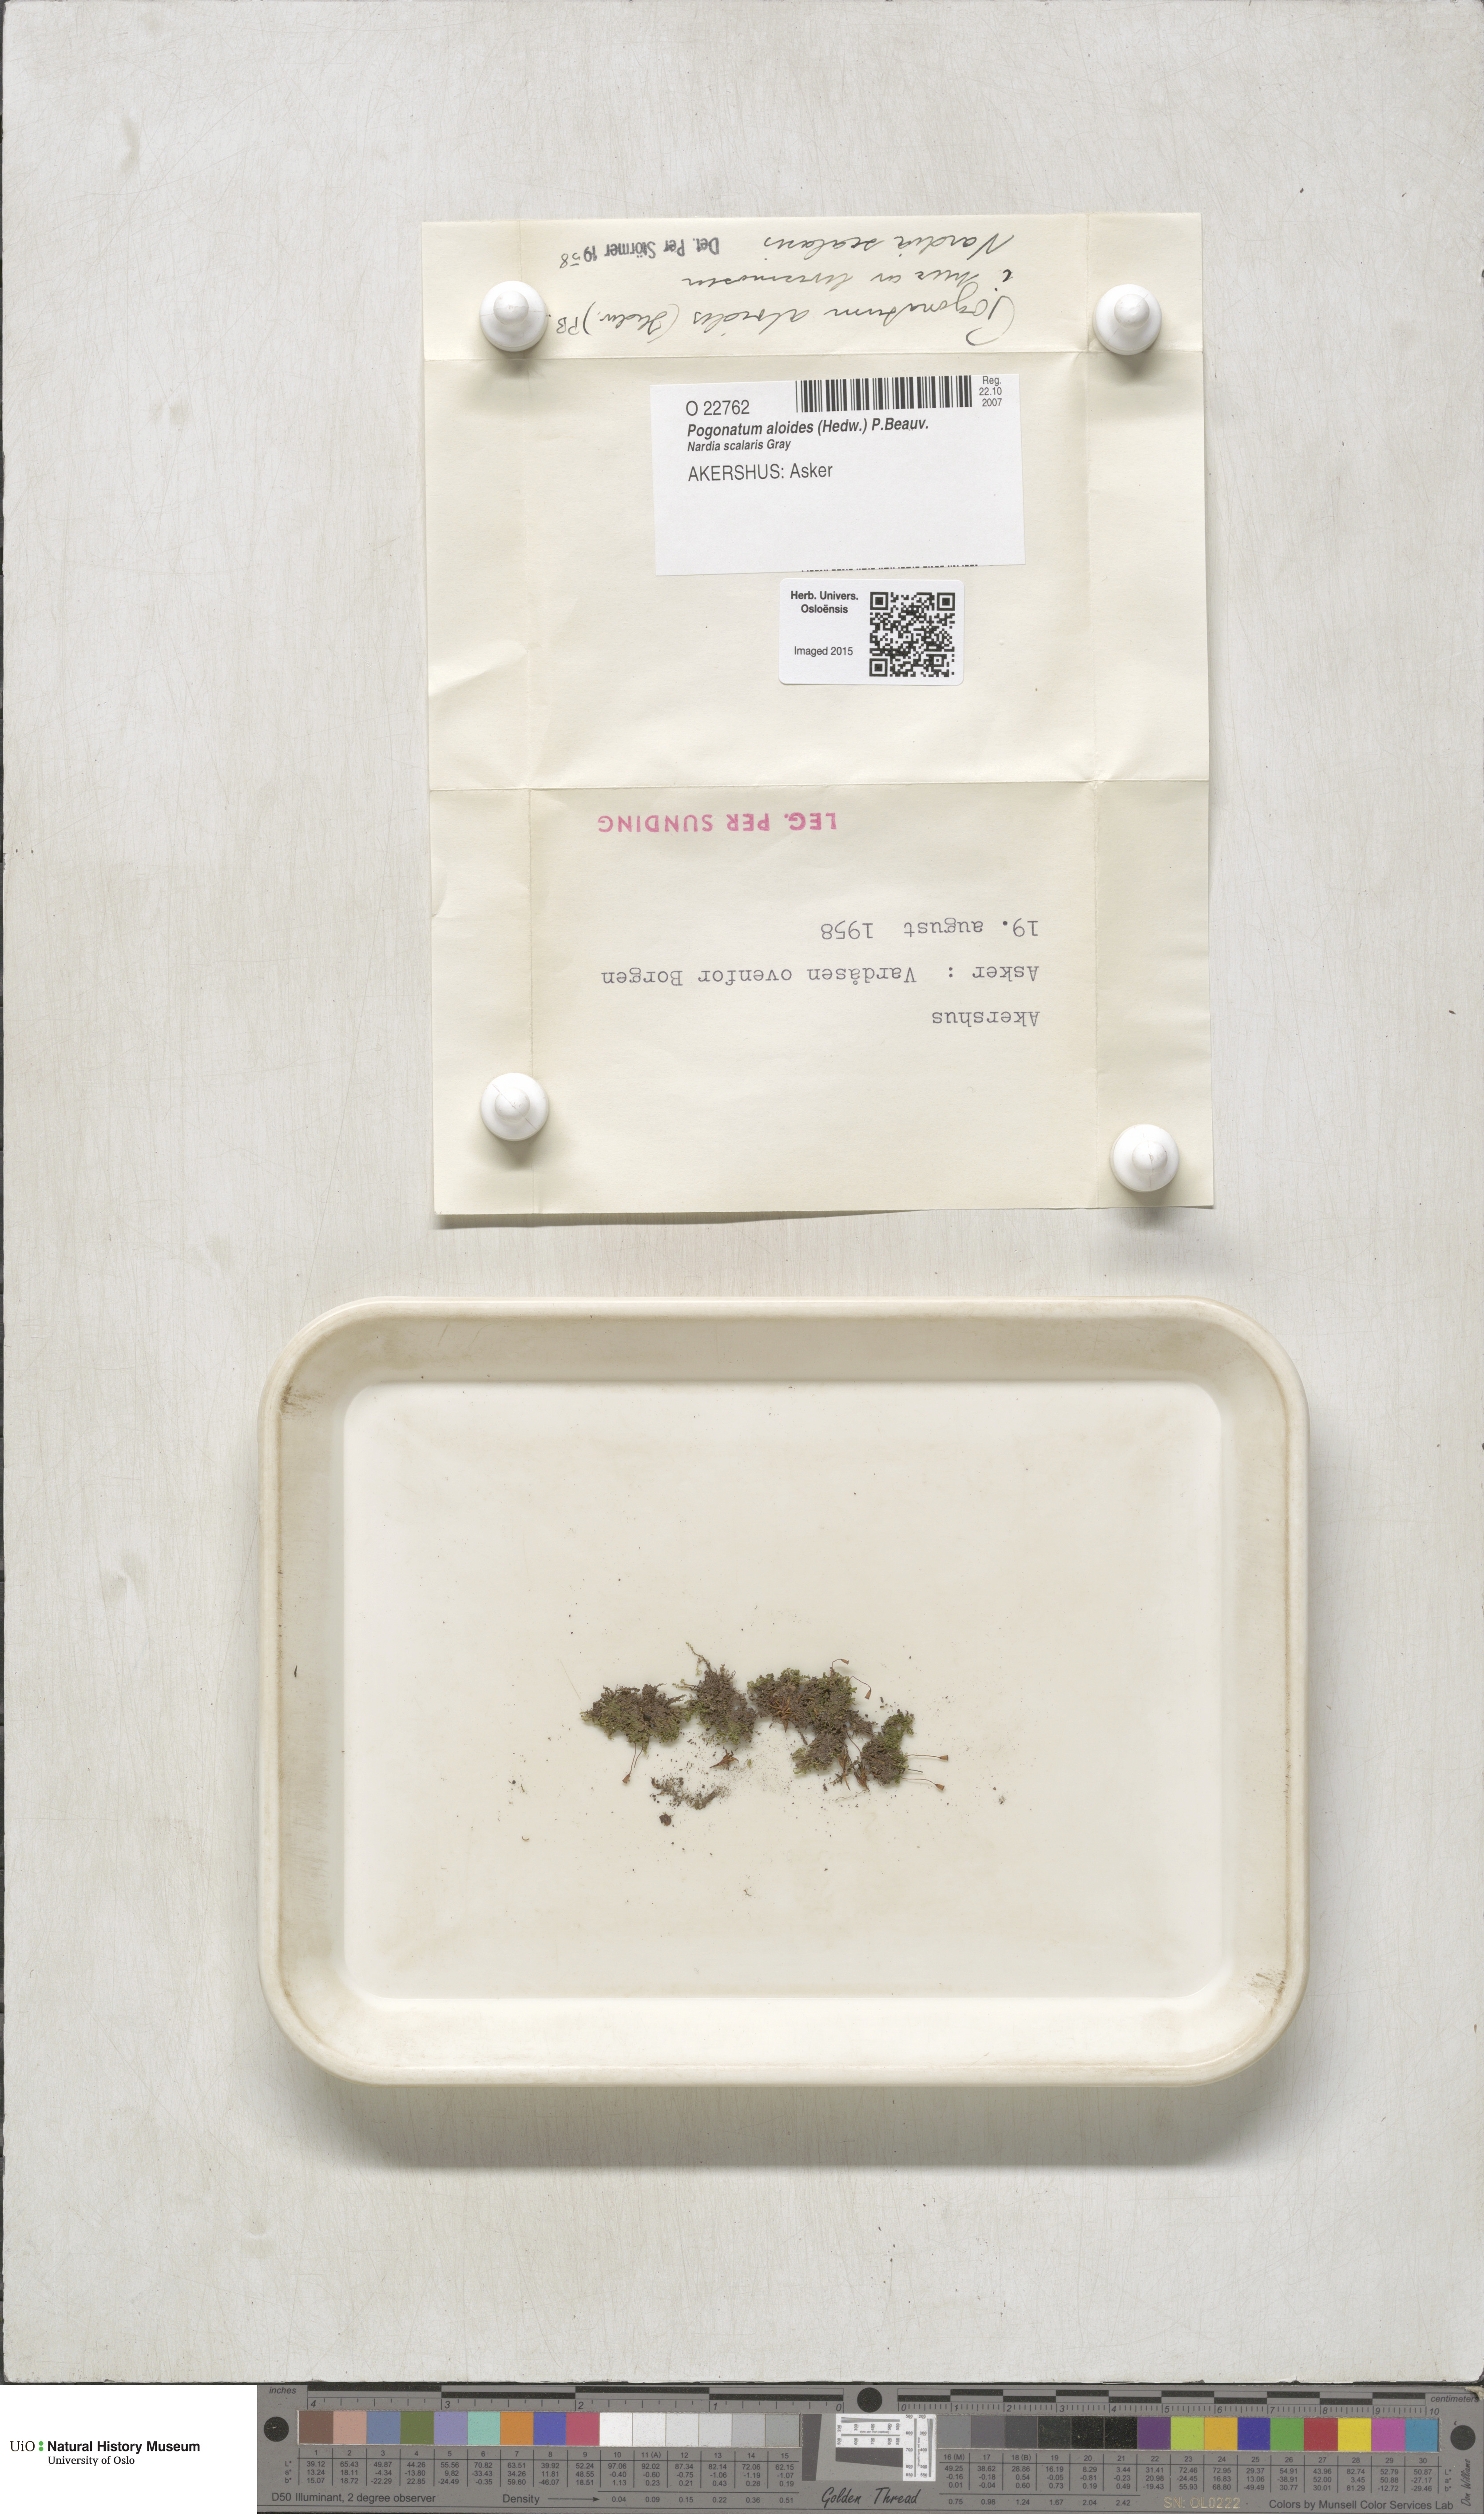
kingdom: Plantae
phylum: Bryophyta
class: Polytrichopsida
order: Polytrichales
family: Polytrichaceae
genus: Pogonatum
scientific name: Pogonatum aloides
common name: Aloe haircap
